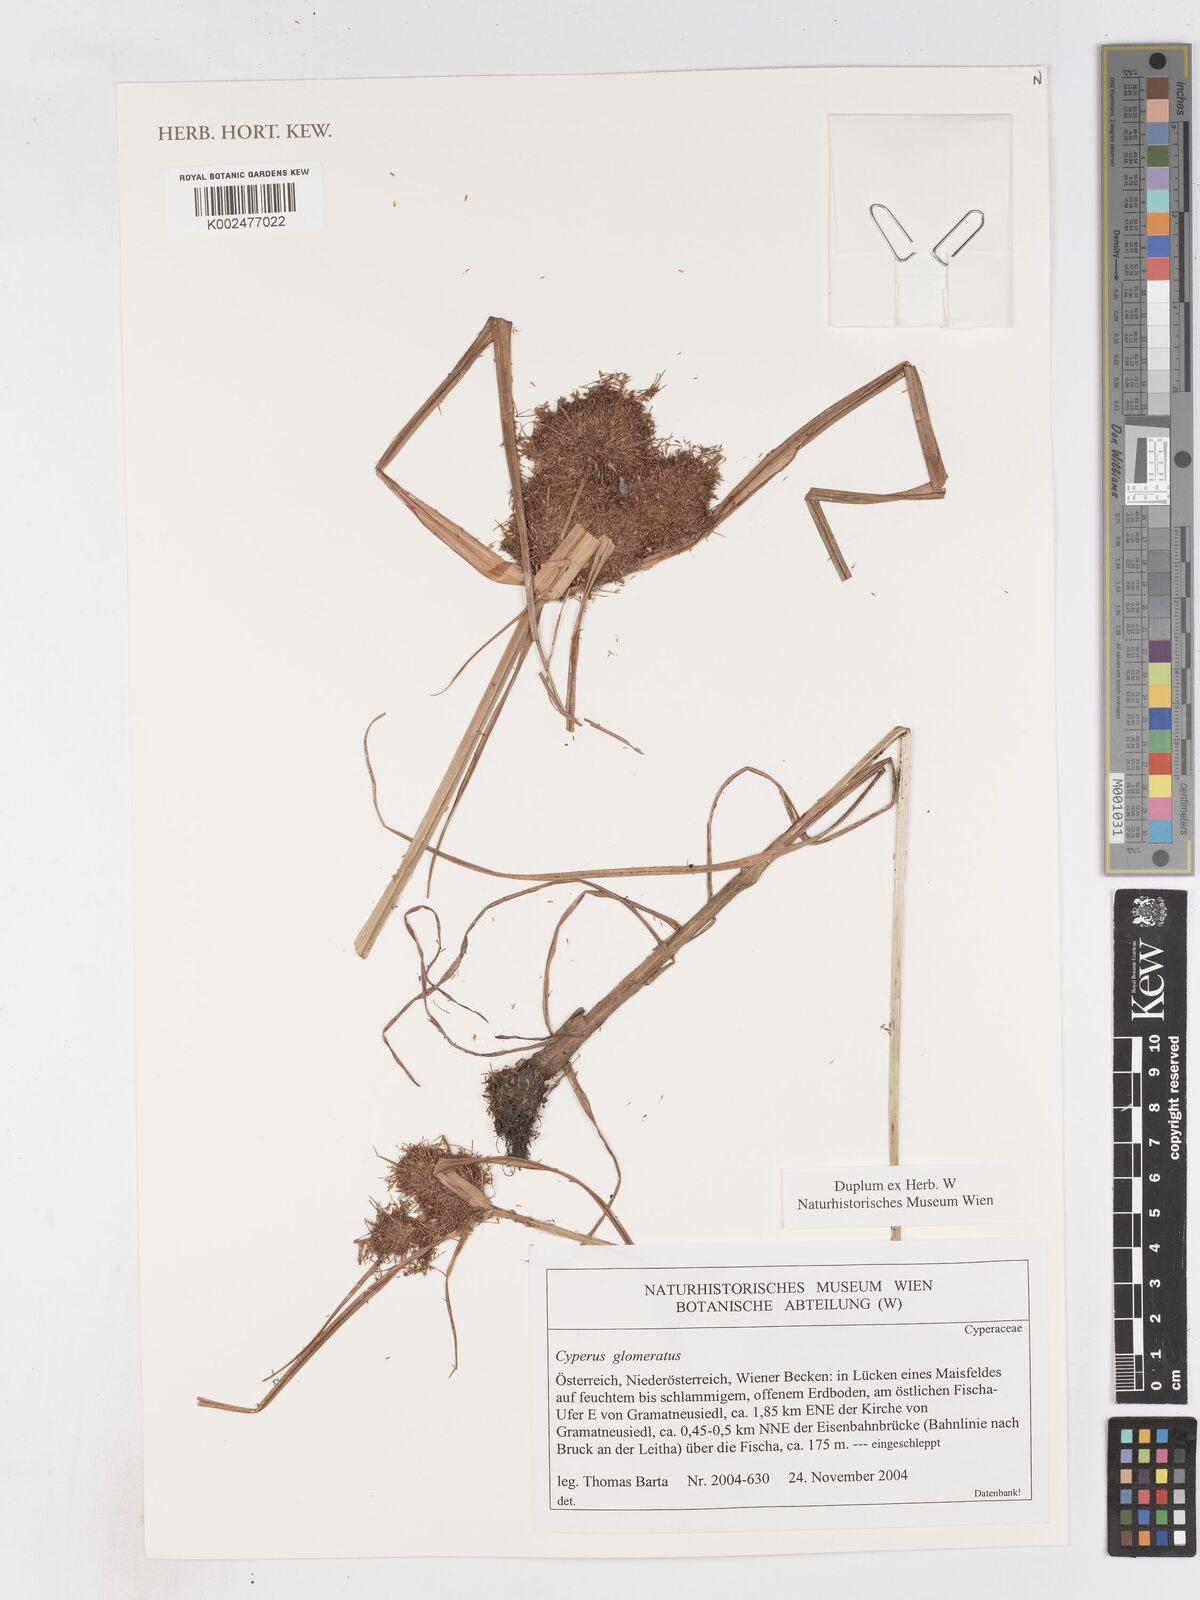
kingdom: Plantae
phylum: Tracheophyta
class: Liliopsida
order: Poales
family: Cyperaceae
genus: Cyperus
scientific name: Cyperus glomeratus
